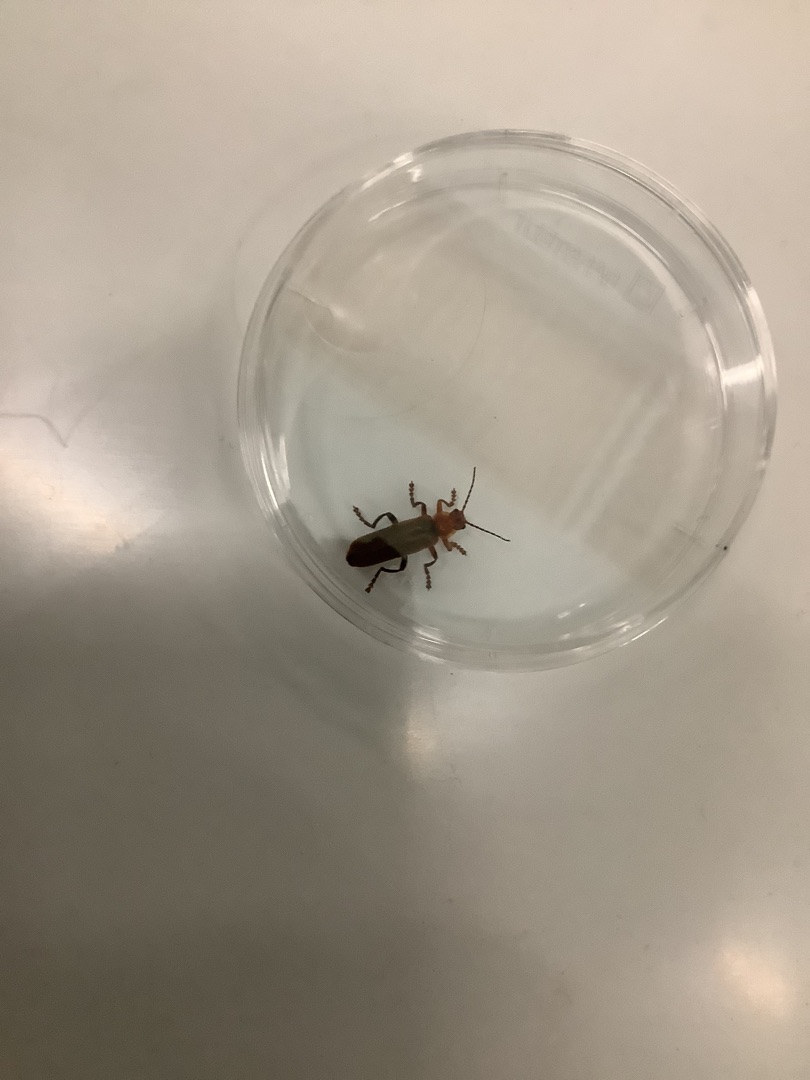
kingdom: Animalia
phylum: Arthropoda
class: Insecta
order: Coleoptera
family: Cantharidae
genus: Cantharis
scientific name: Cantharis livida
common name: Gul blødvinge
